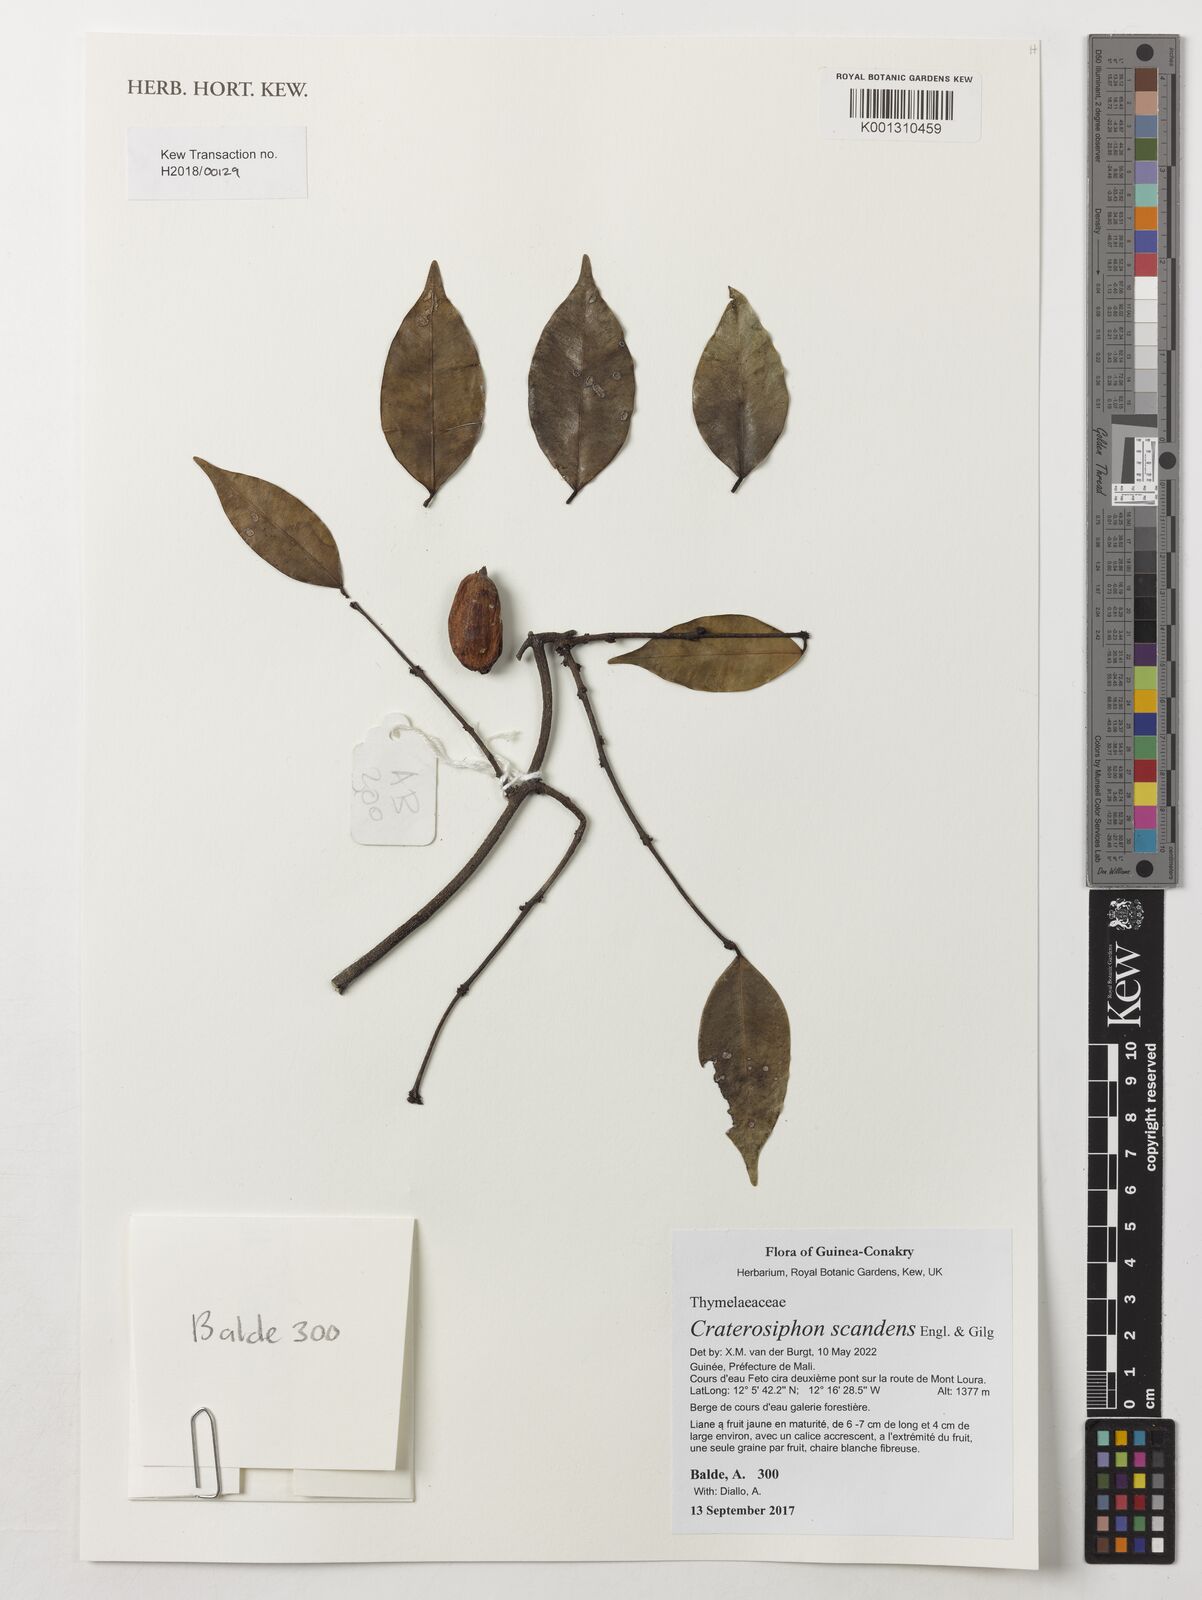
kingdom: Plantae
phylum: Tracheophyta
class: Magnoliopsida
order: Malvales
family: Thymelaeaceae
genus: Craterosiphon
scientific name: Craterosiphon scandens
